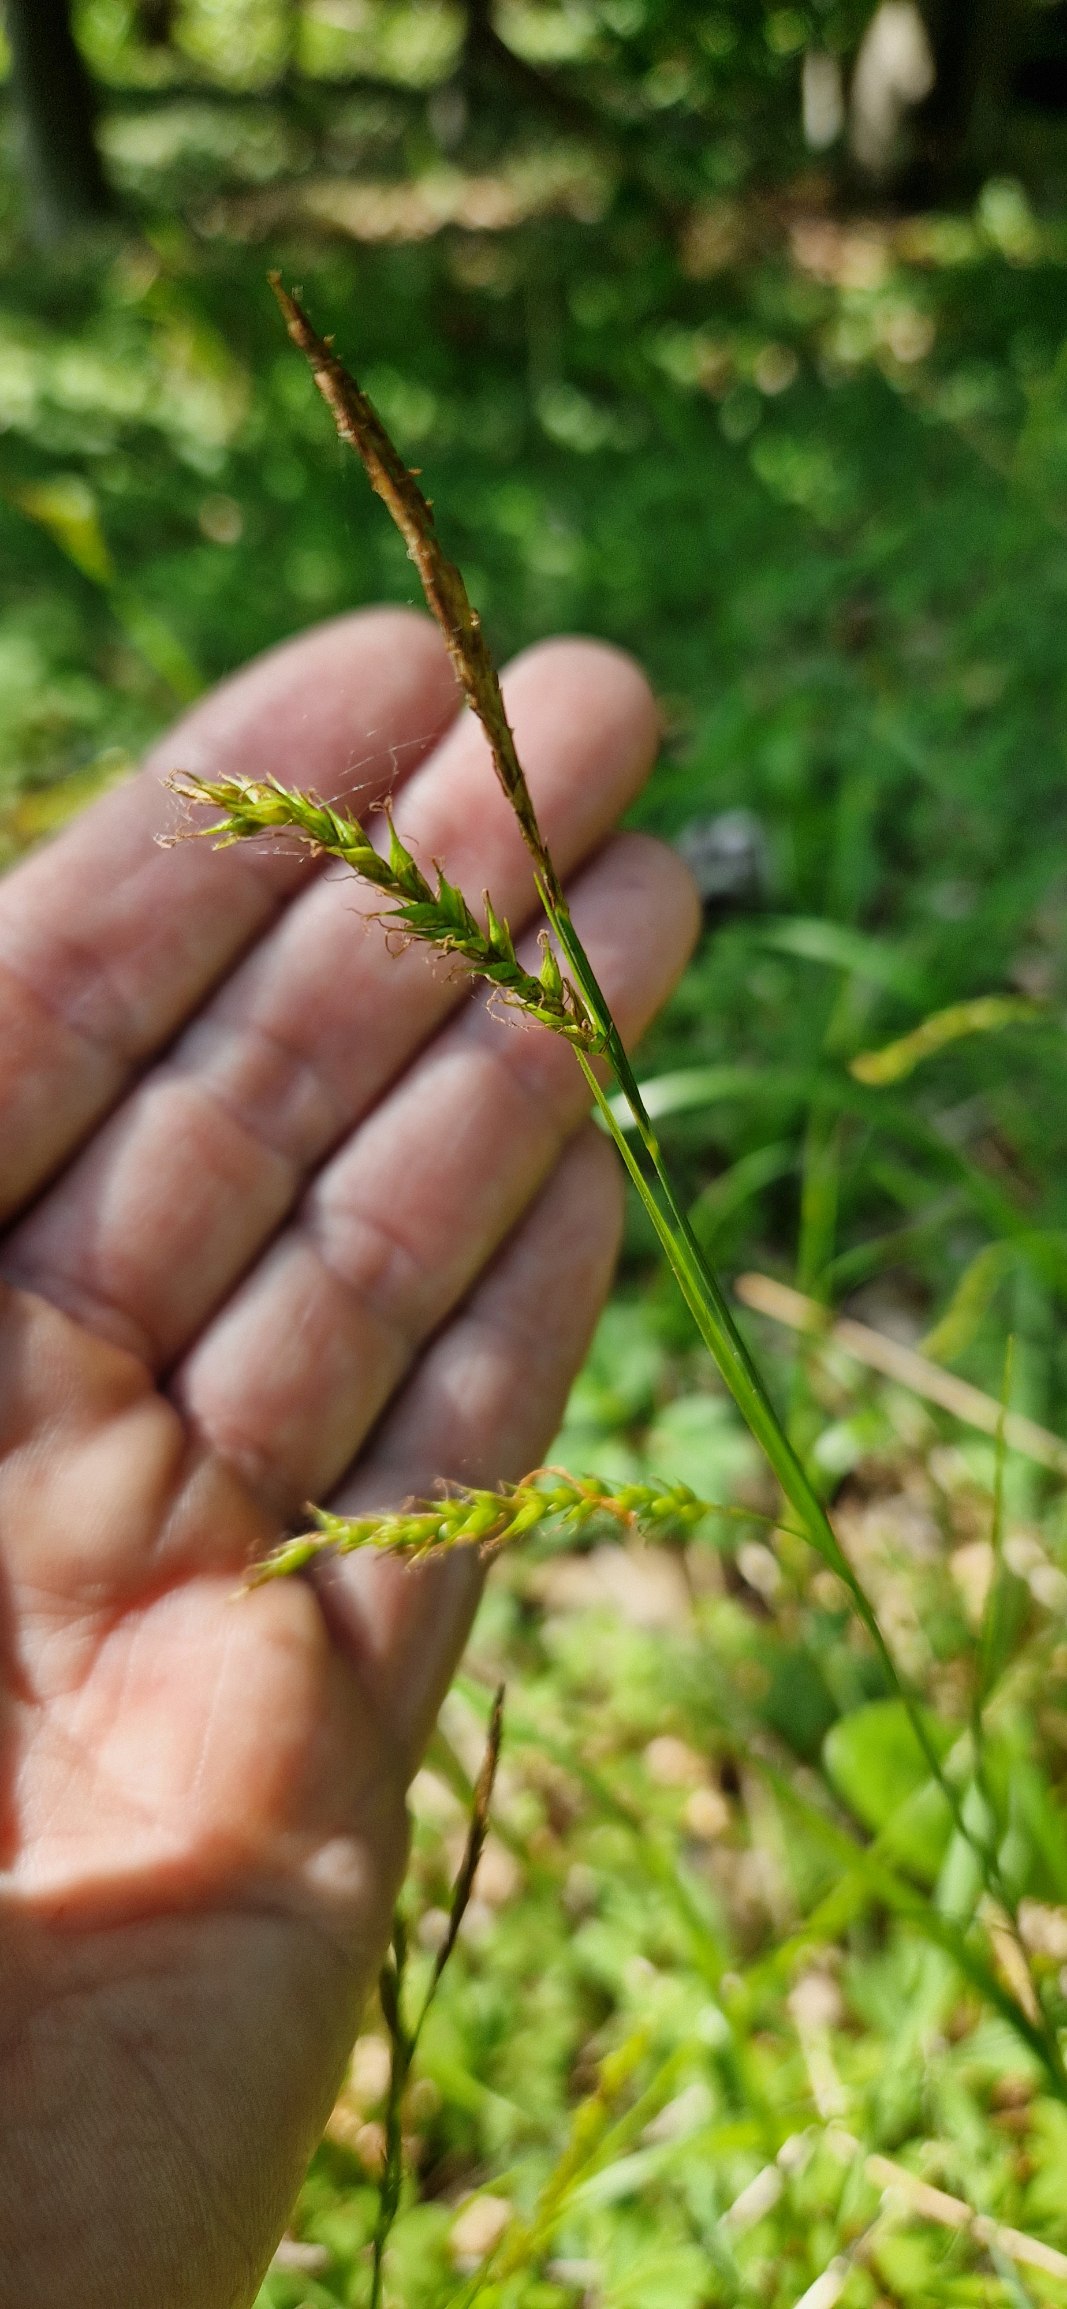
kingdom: Plantae
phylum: Tracheophyta
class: Liliopsida
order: Poales
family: Cyperaceae
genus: Carex
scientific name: Carex sylvatica
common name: Skov-star
